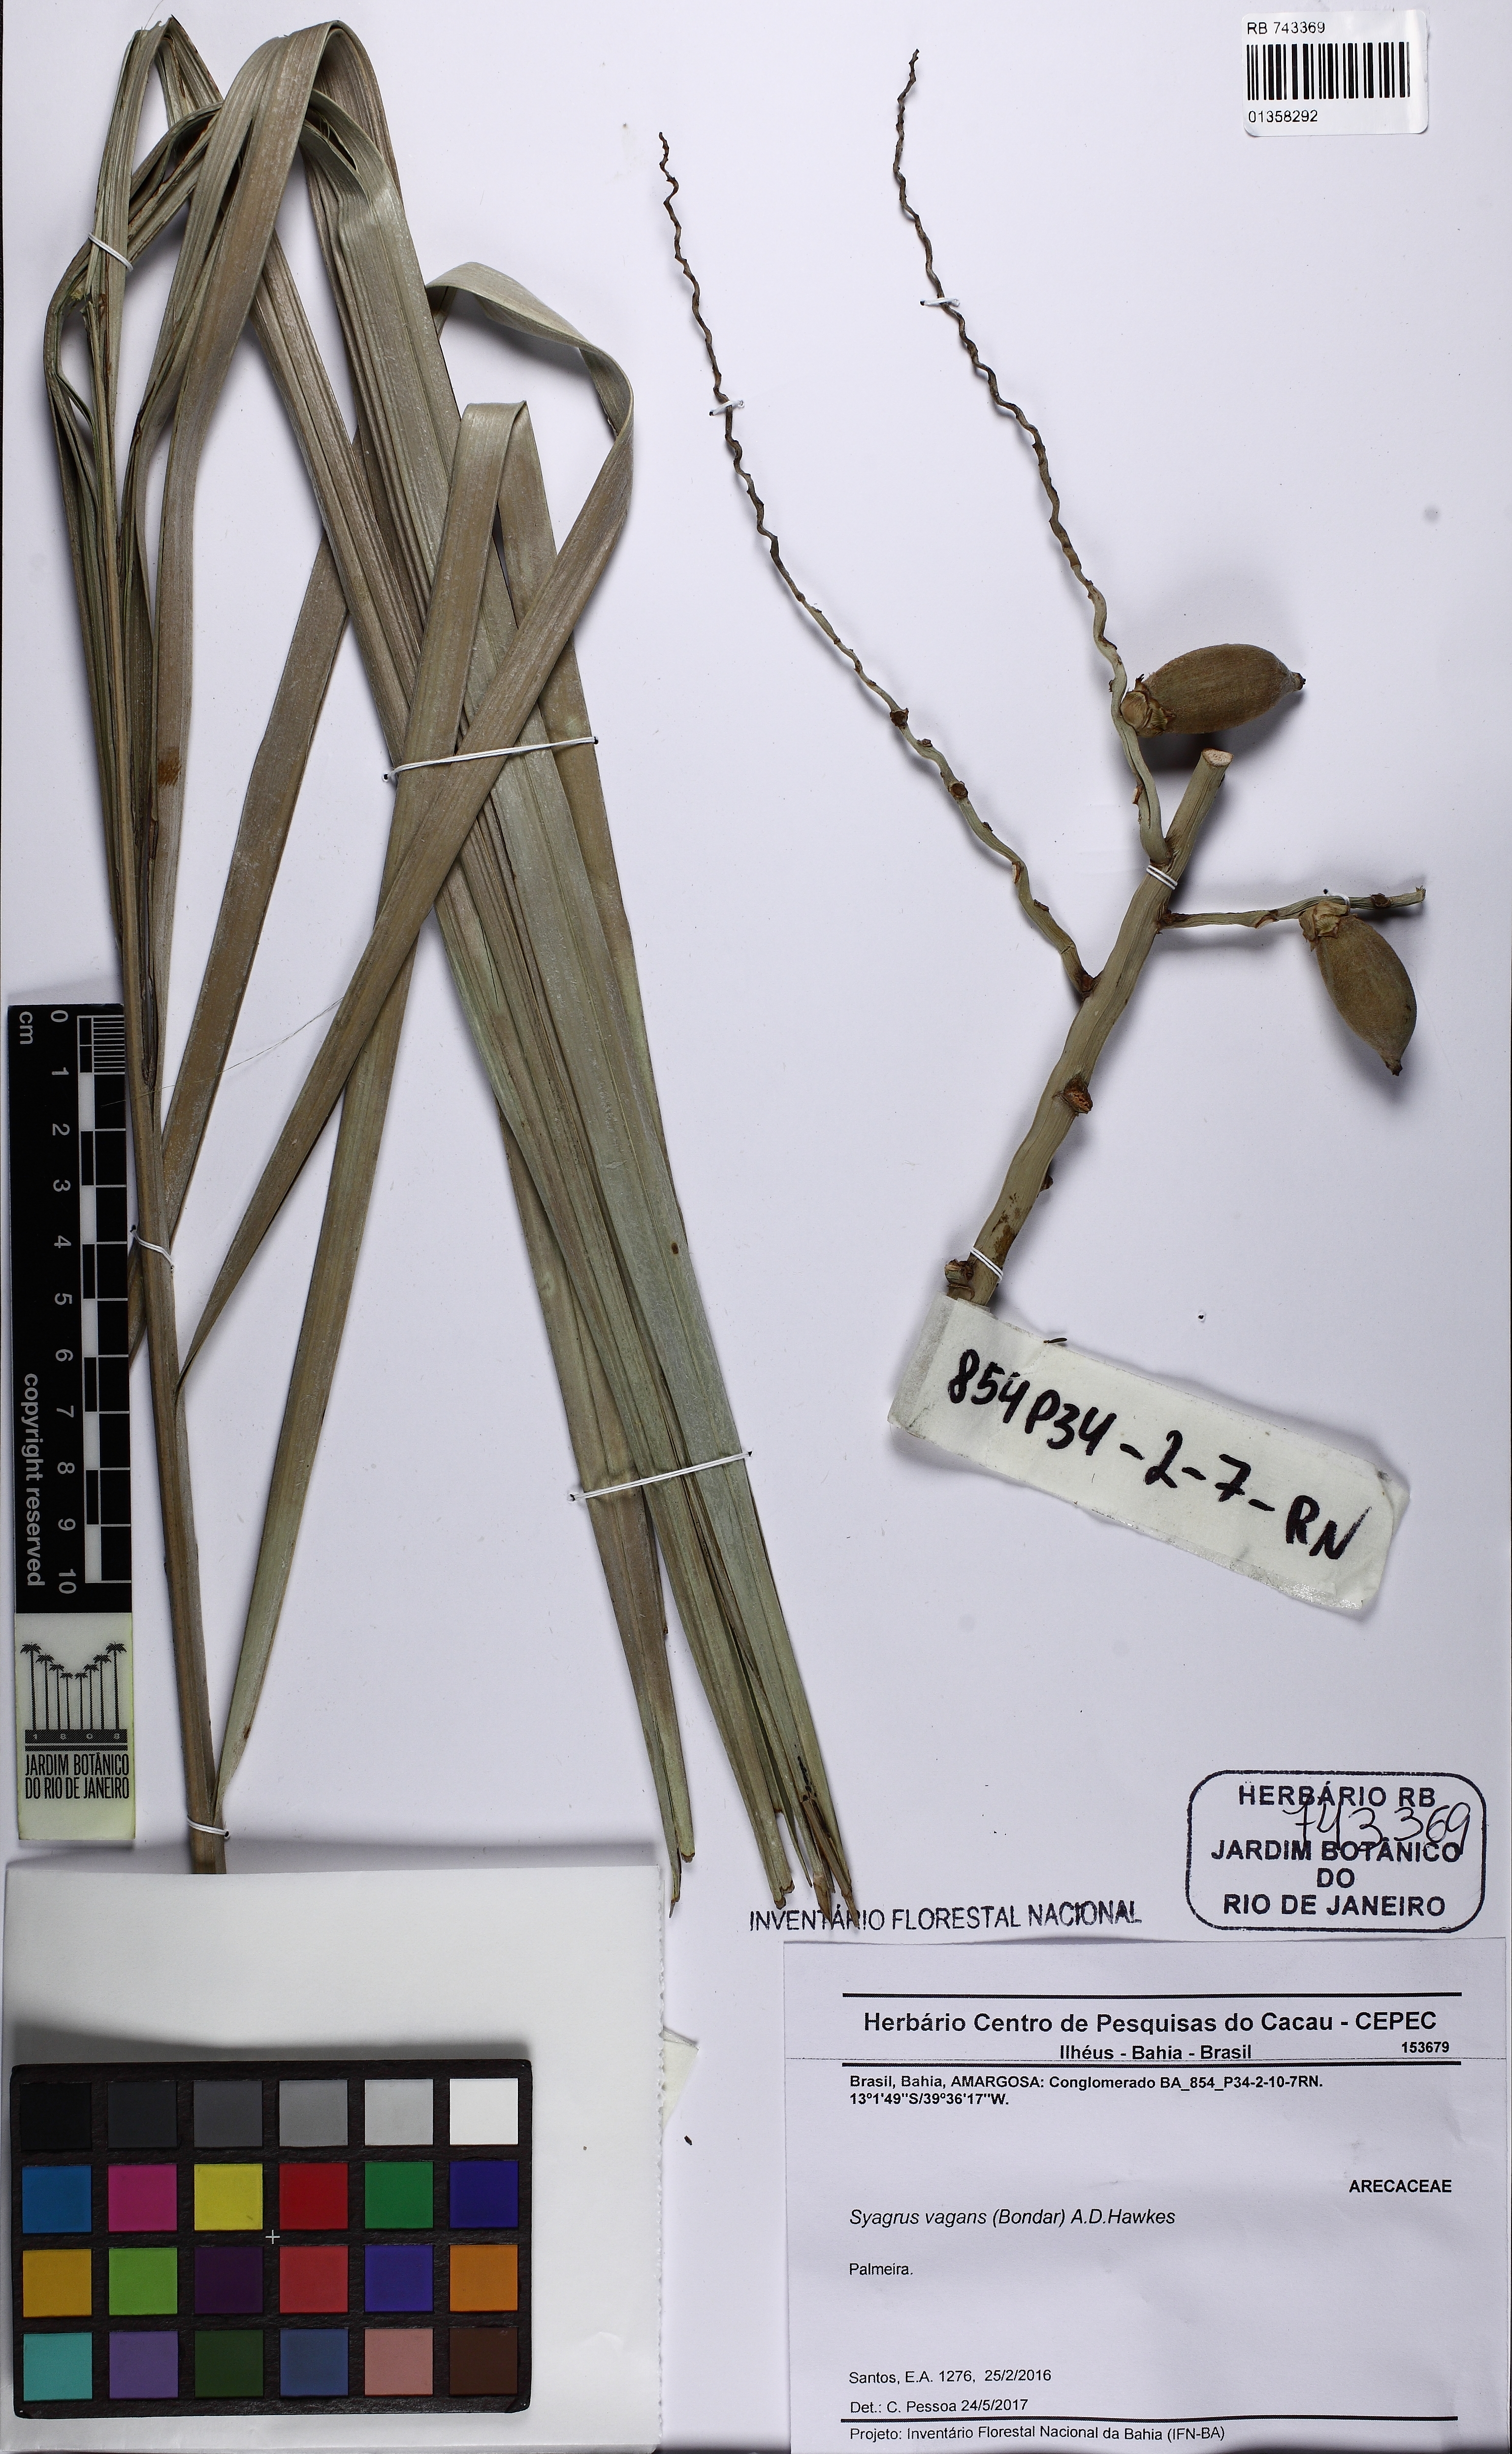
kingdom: Plantae
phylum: Tracheophyta
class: Liliopsida
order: Arecales
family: Arecaceae
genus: Syagrus
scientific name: Syagrus vagans
